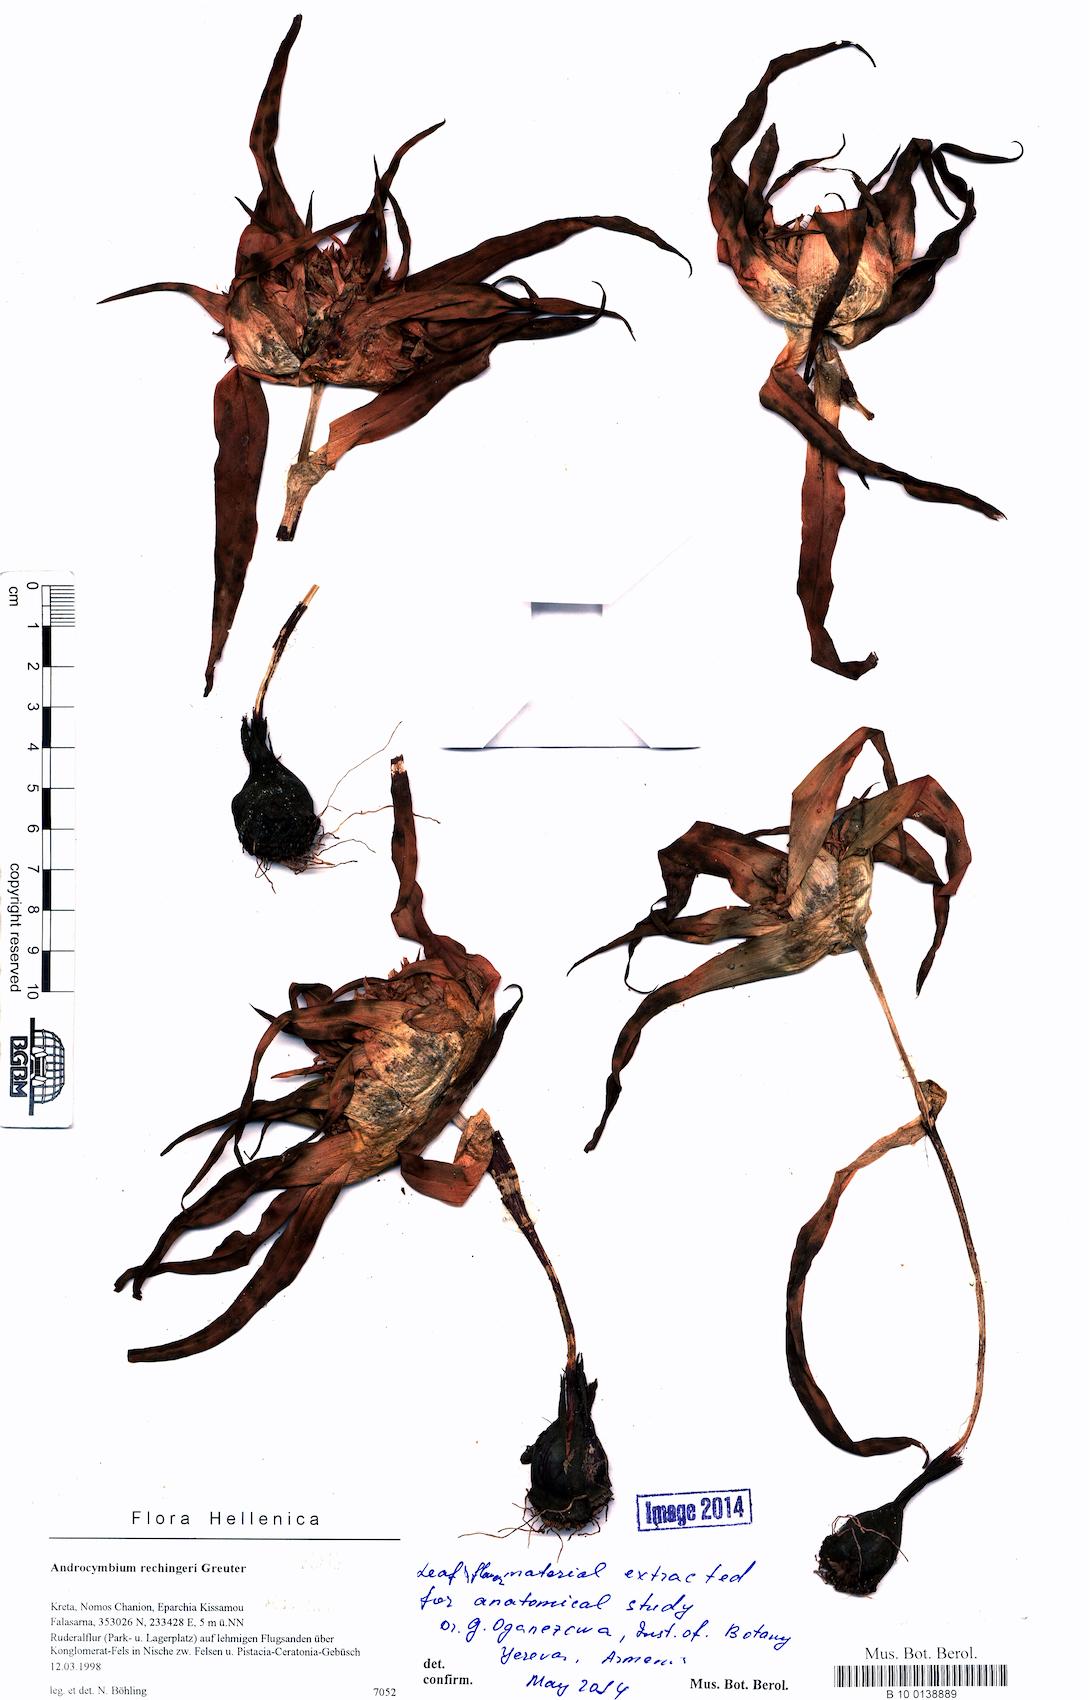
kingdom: Plantae
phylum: Tracheophyta
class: Liliopsida
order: Liliales
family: Colchicaceae
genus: Colchicum
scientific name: Colchicum rechingeri
